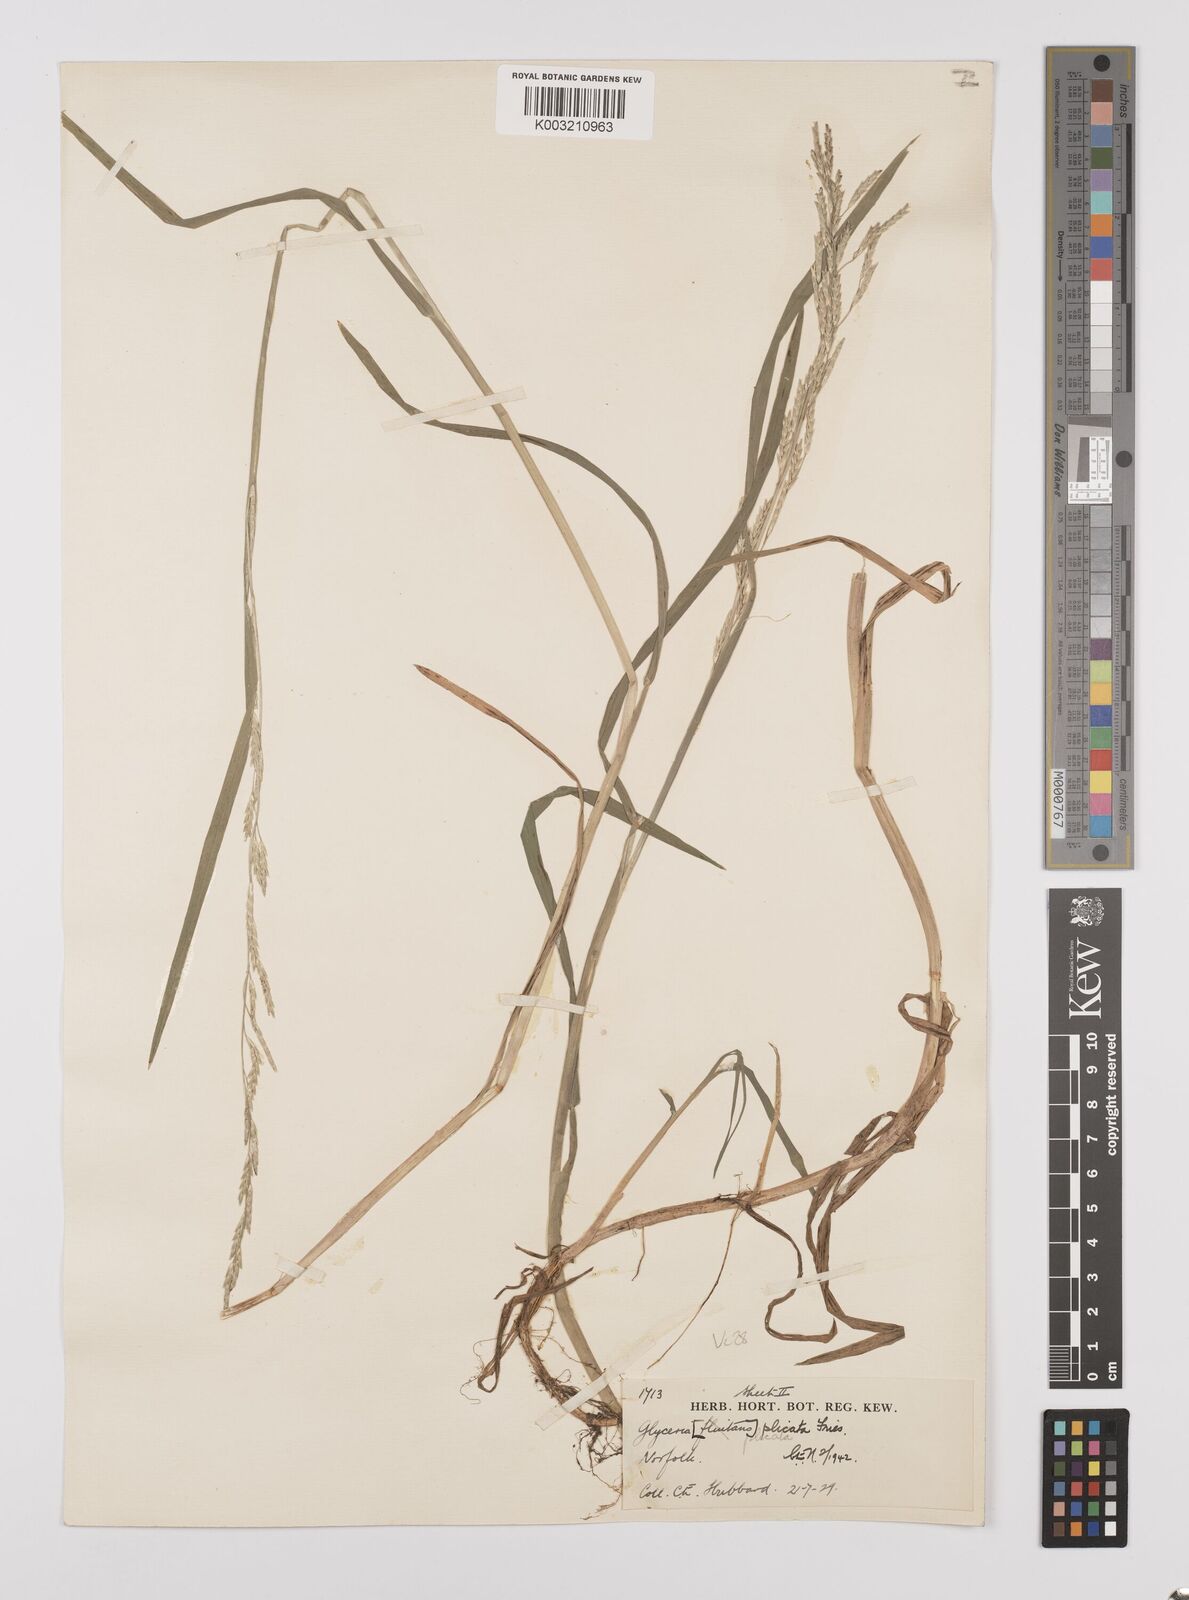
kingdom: Plantae
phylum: Tracheophyta
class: Liliopsida
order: Poales
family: Poaceae
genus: Glyceria
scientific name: Glyceria notata
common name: Plicate sweet-grass
